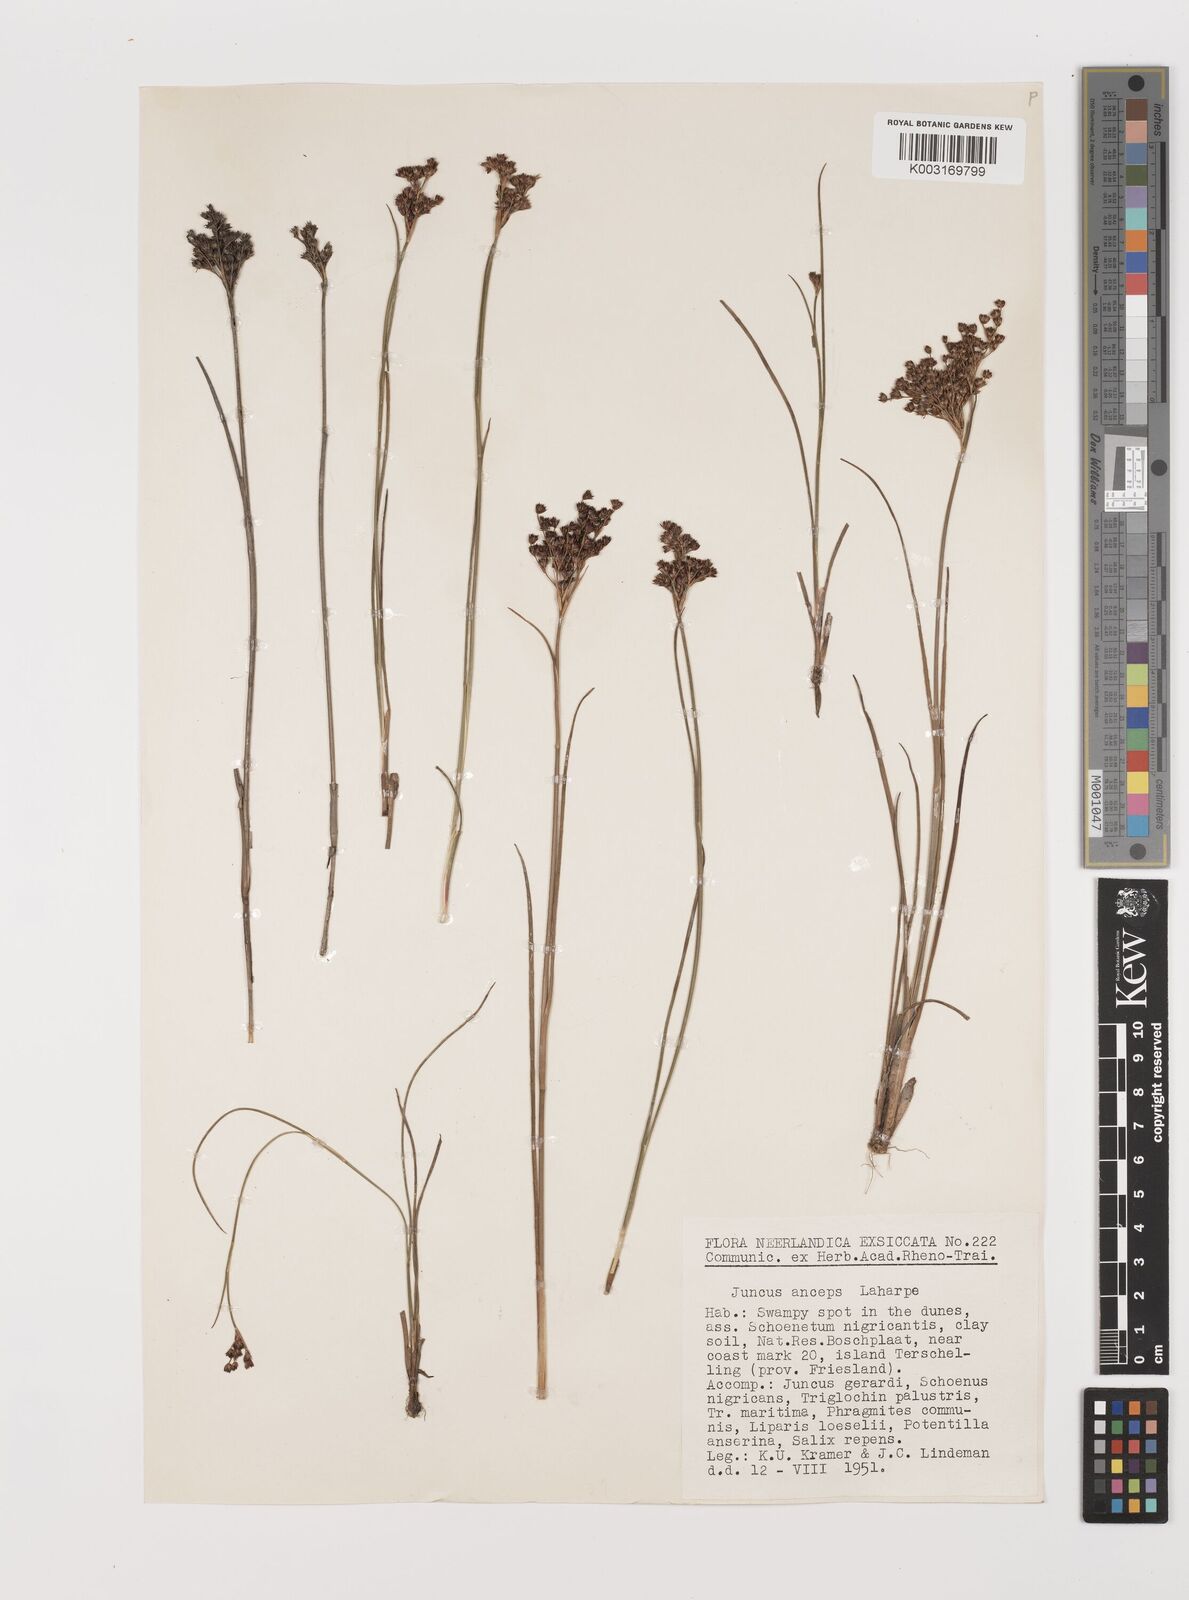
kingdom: Plantae
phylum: Tracheophyta
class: Liliopsida
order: Poales
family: Juncaceae
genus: Juncus
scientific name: Juncus anceps
